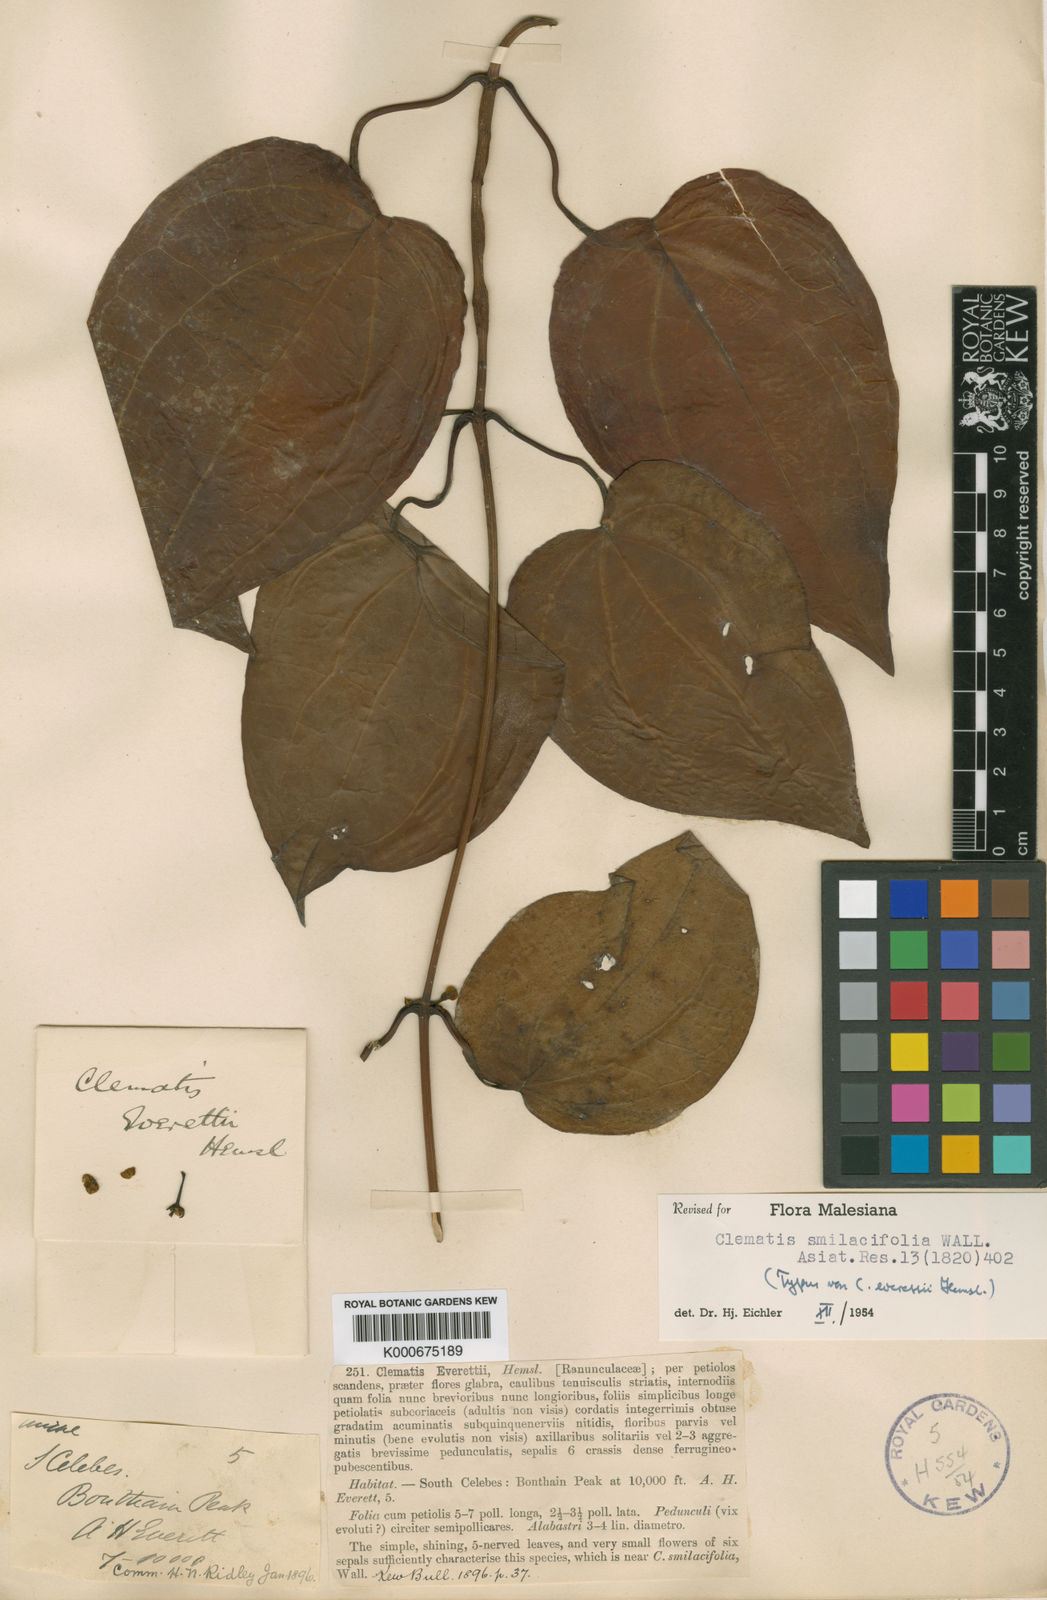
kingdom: Plantae
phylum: Tracheophyta
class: Magnoliopsida
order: Ranunculales
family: Ranunculaceae
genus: Clematis
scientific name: Clematis smilacifolia
